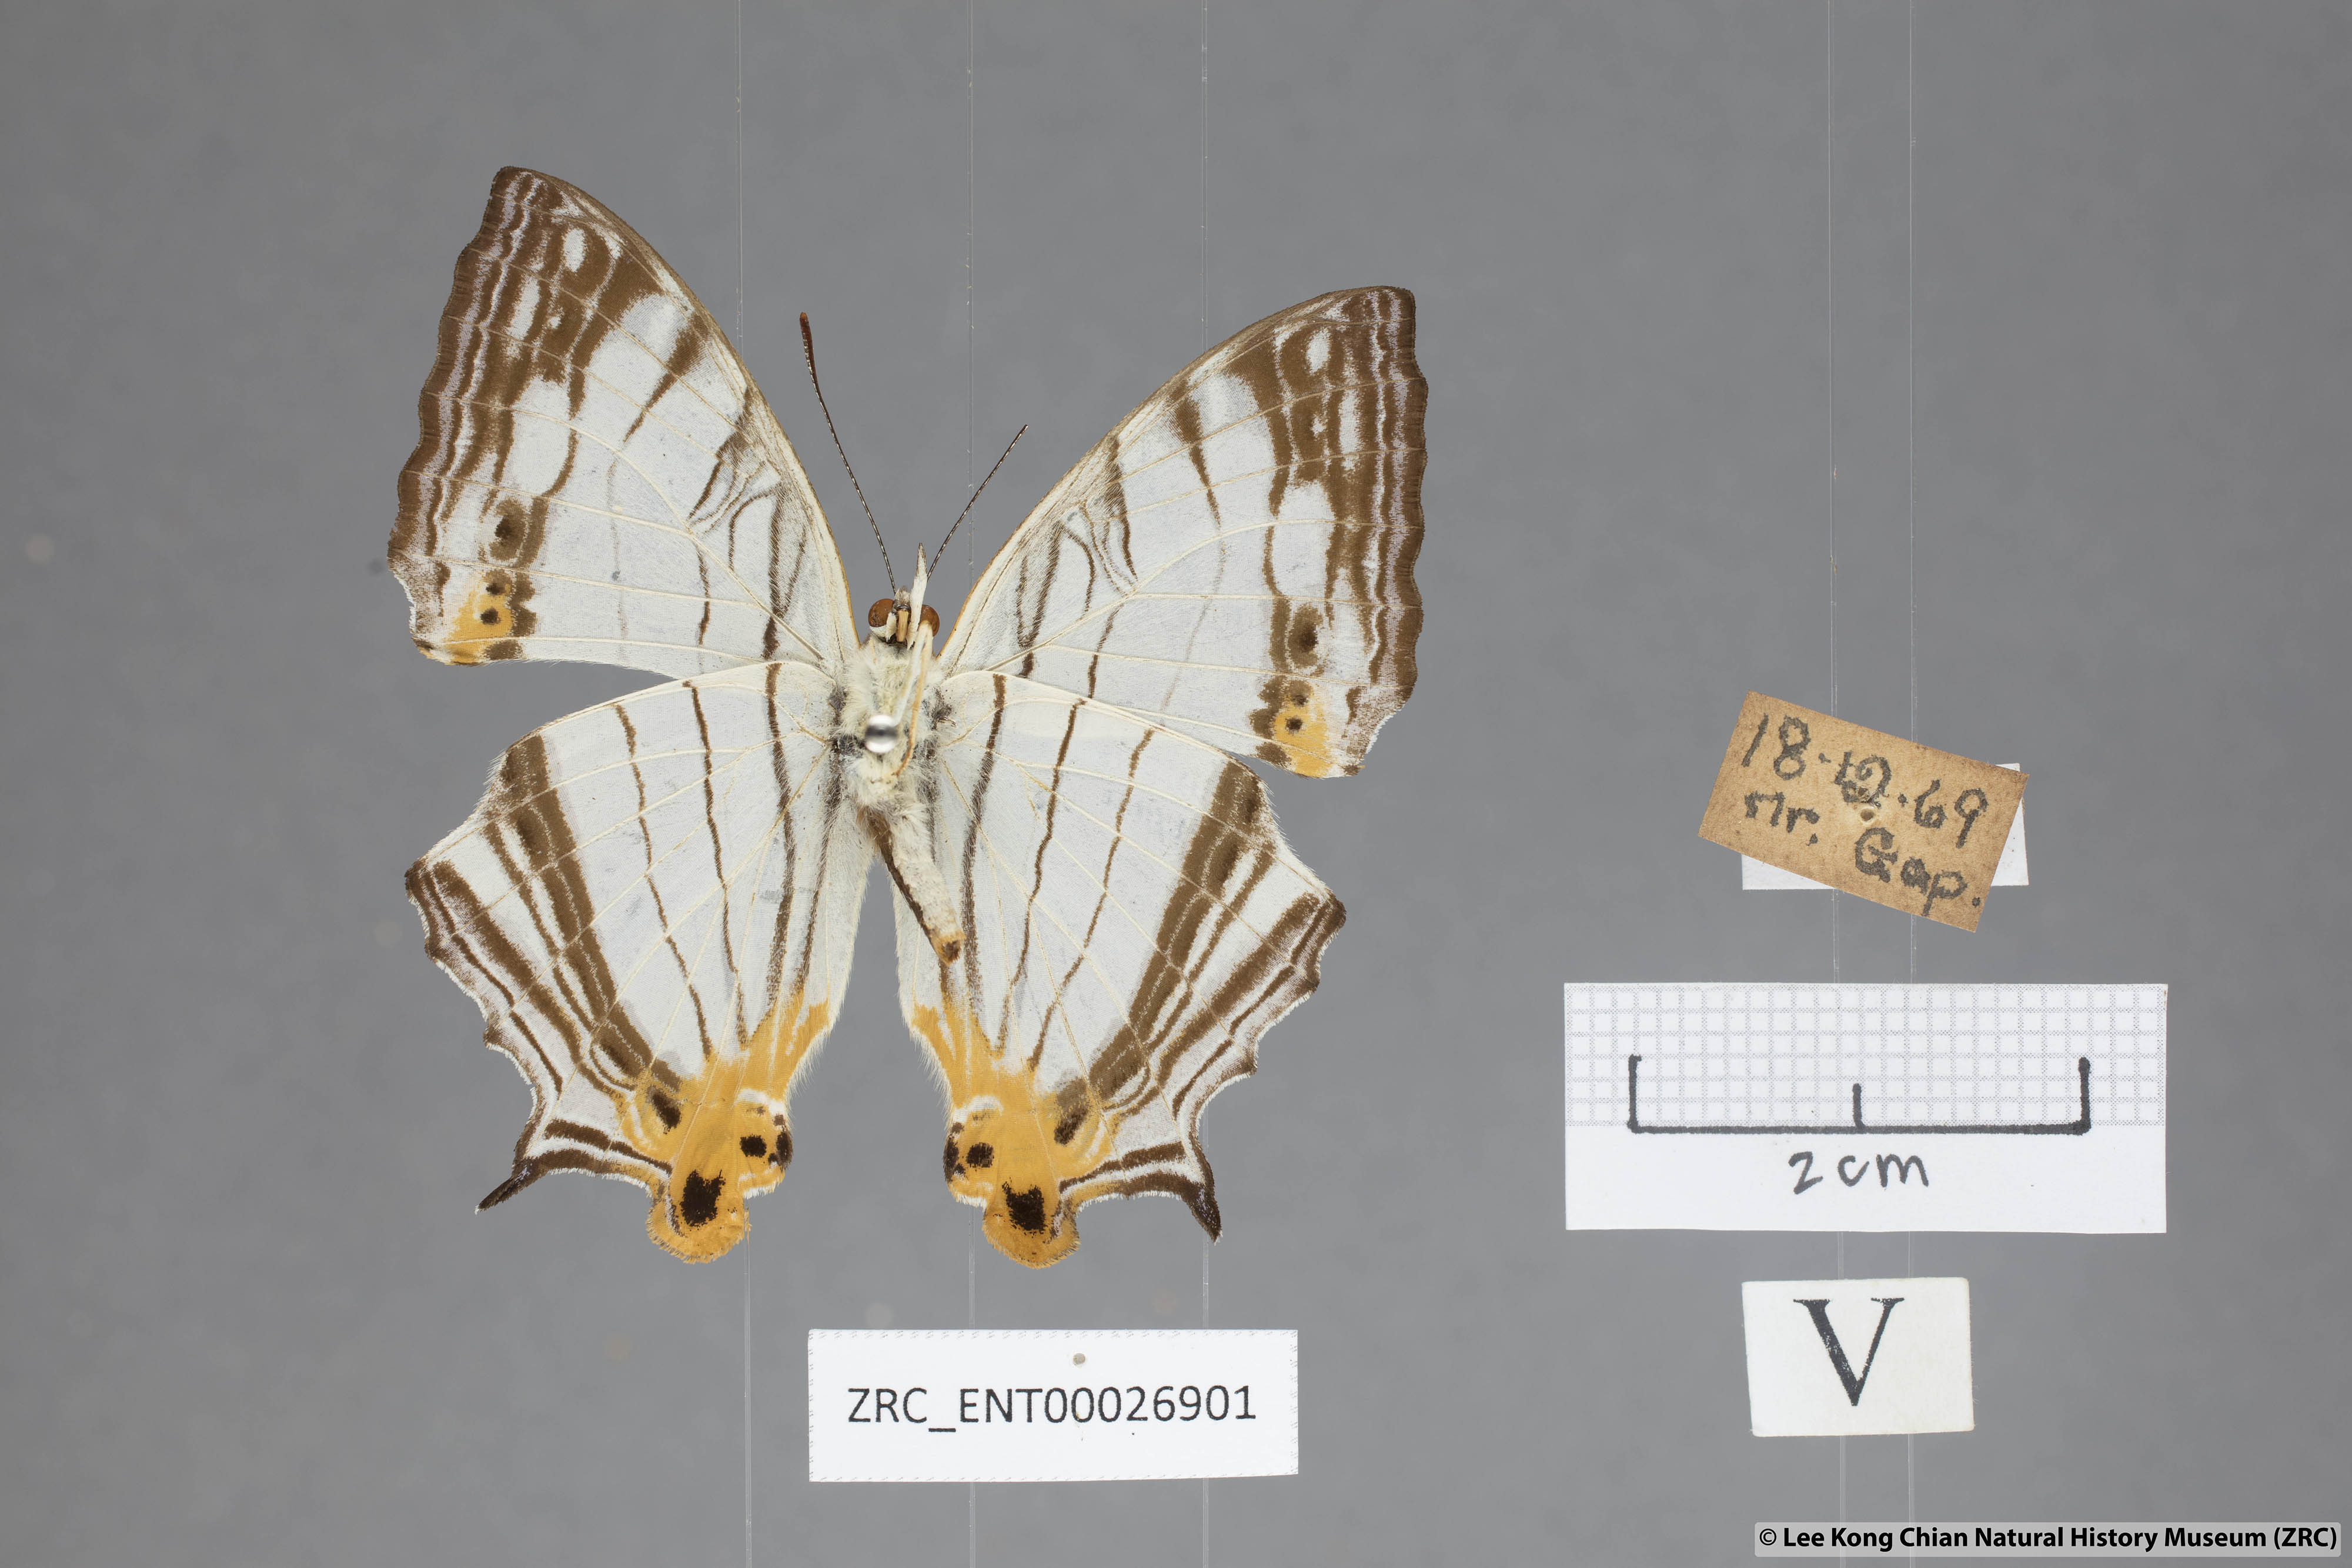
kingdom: Animalia
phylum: Arthropoda
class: Insecta
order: Lepidoptera
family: Nymphalidae
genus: Cyrestis
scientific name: Cyrestis maenalis
